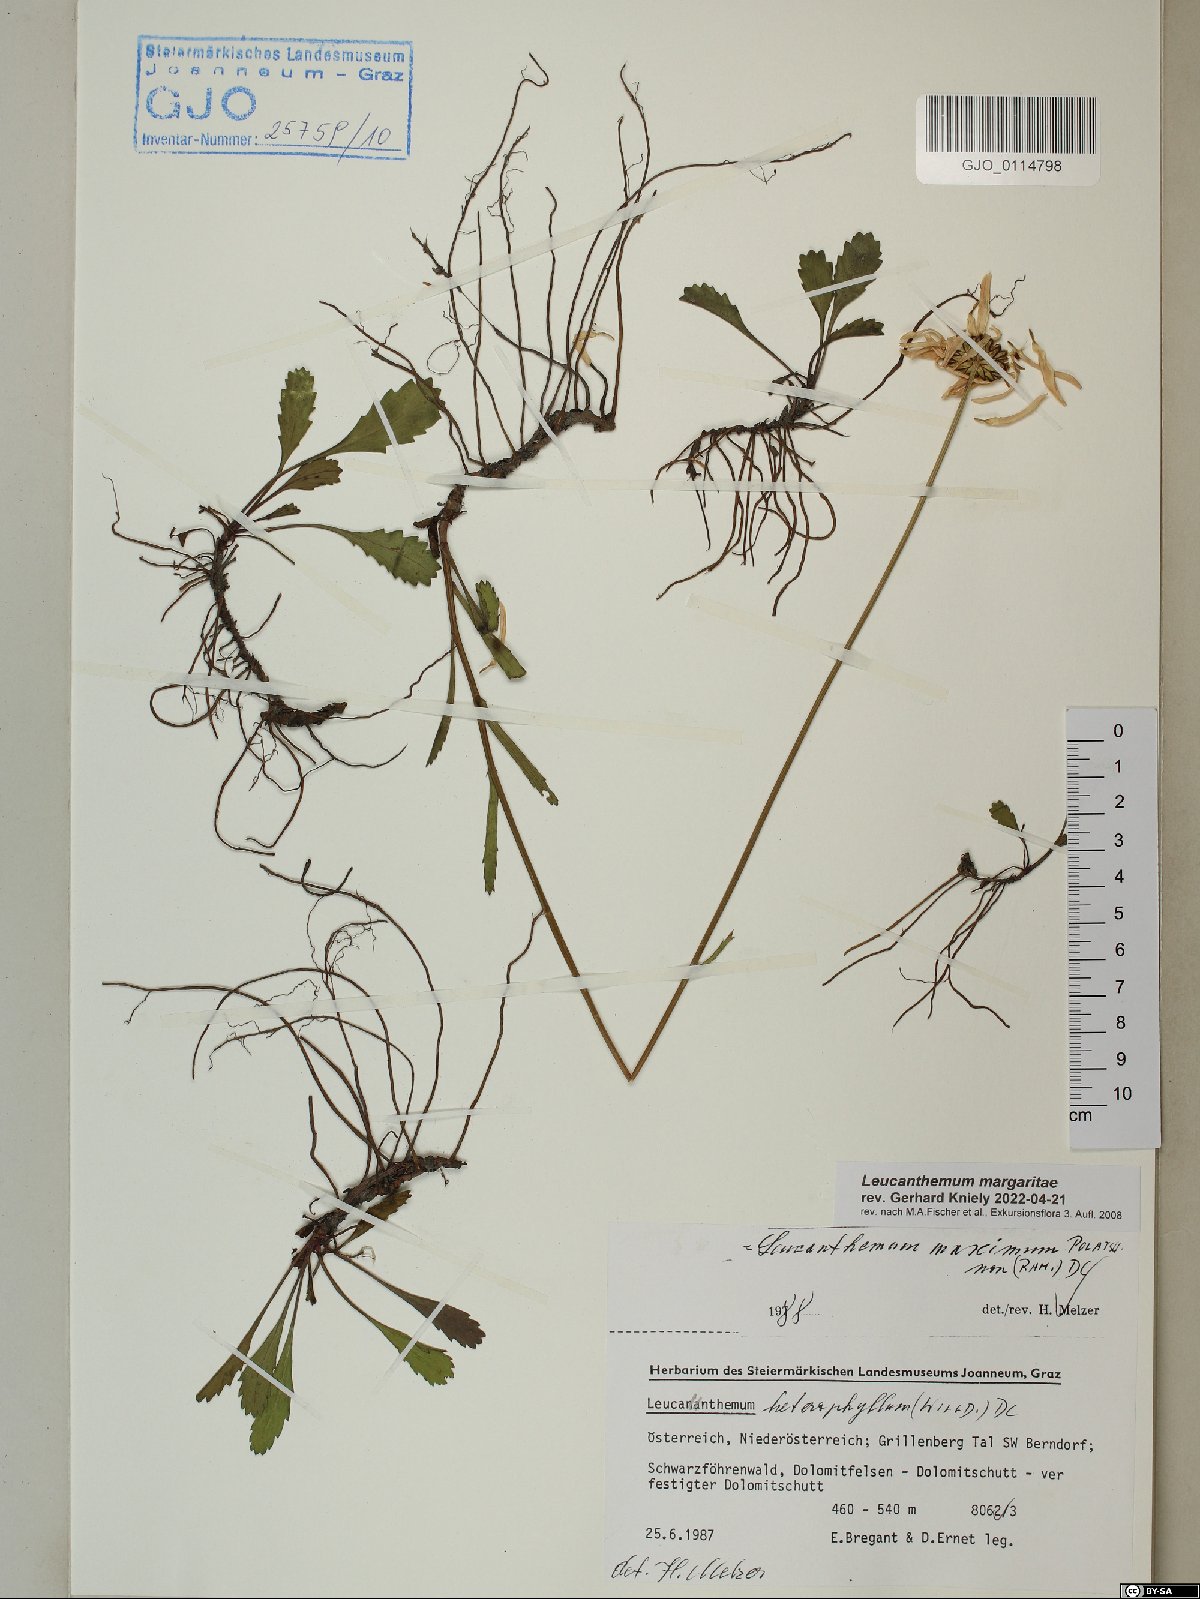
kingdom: Plantae
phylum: Tracheophyta
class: Magnoliopsida
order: Asterales
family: Asteraceae
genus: Leucanthemum
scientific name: Leucanthemum adustum
